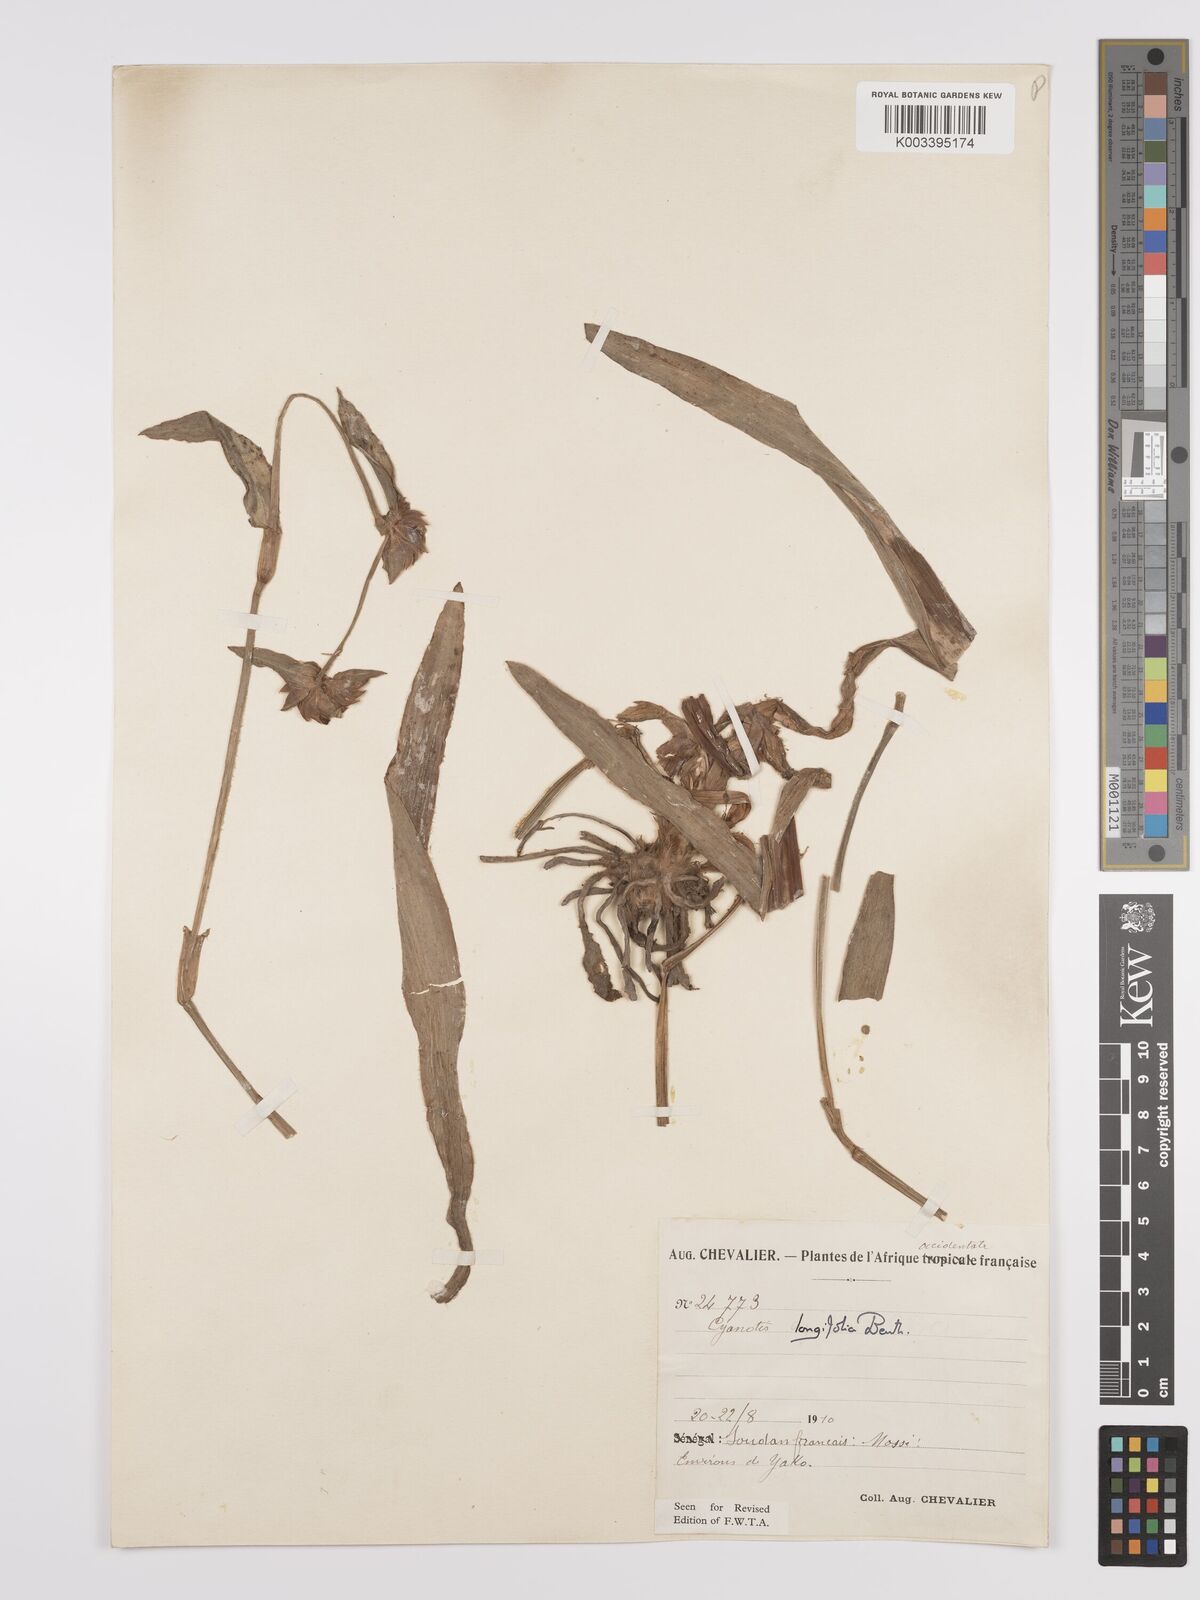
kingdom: Plantae
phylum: Tracheophyta
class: Liliopsida
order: Commelinales
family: Commelinaceae
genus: Cyanotis
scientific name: Cyanotis
